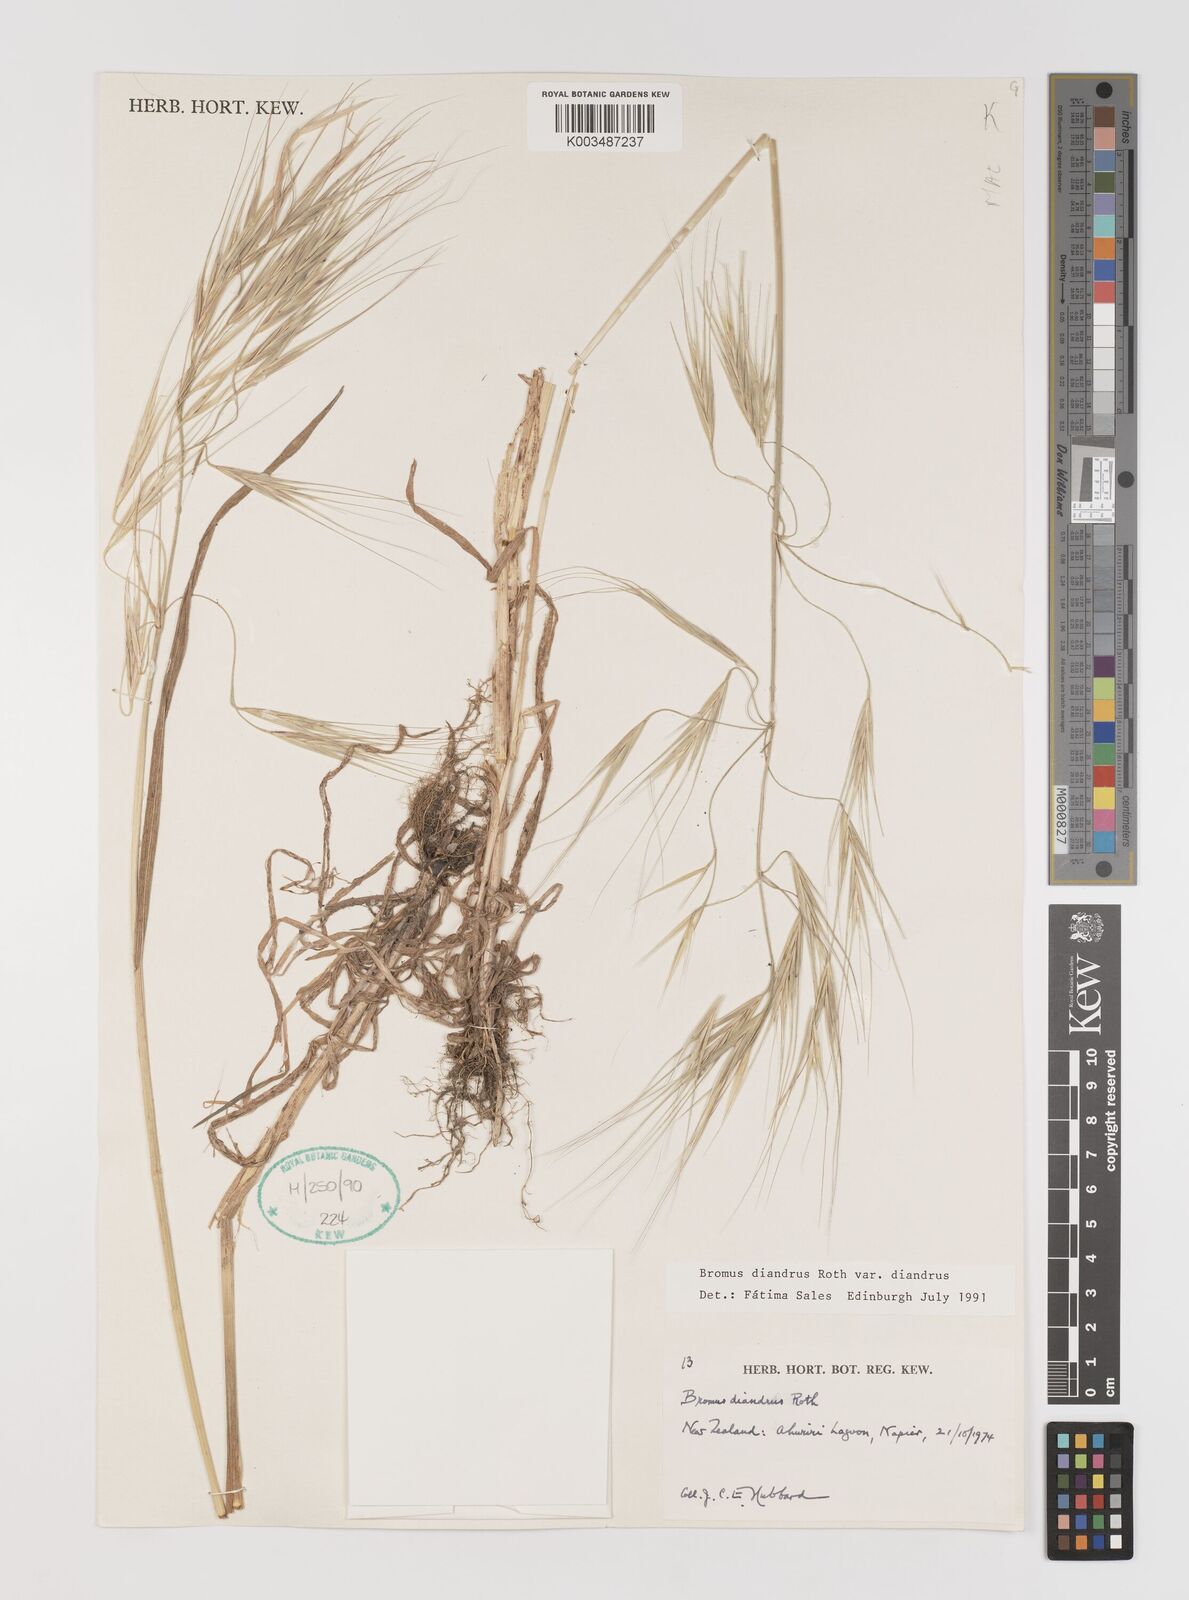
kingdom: Plantae
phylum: Tracheophyta
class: Liliopsida
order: Poales
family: Poaceae
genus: Bromus
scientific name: Bromus diandrus
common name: Ripgut brome
